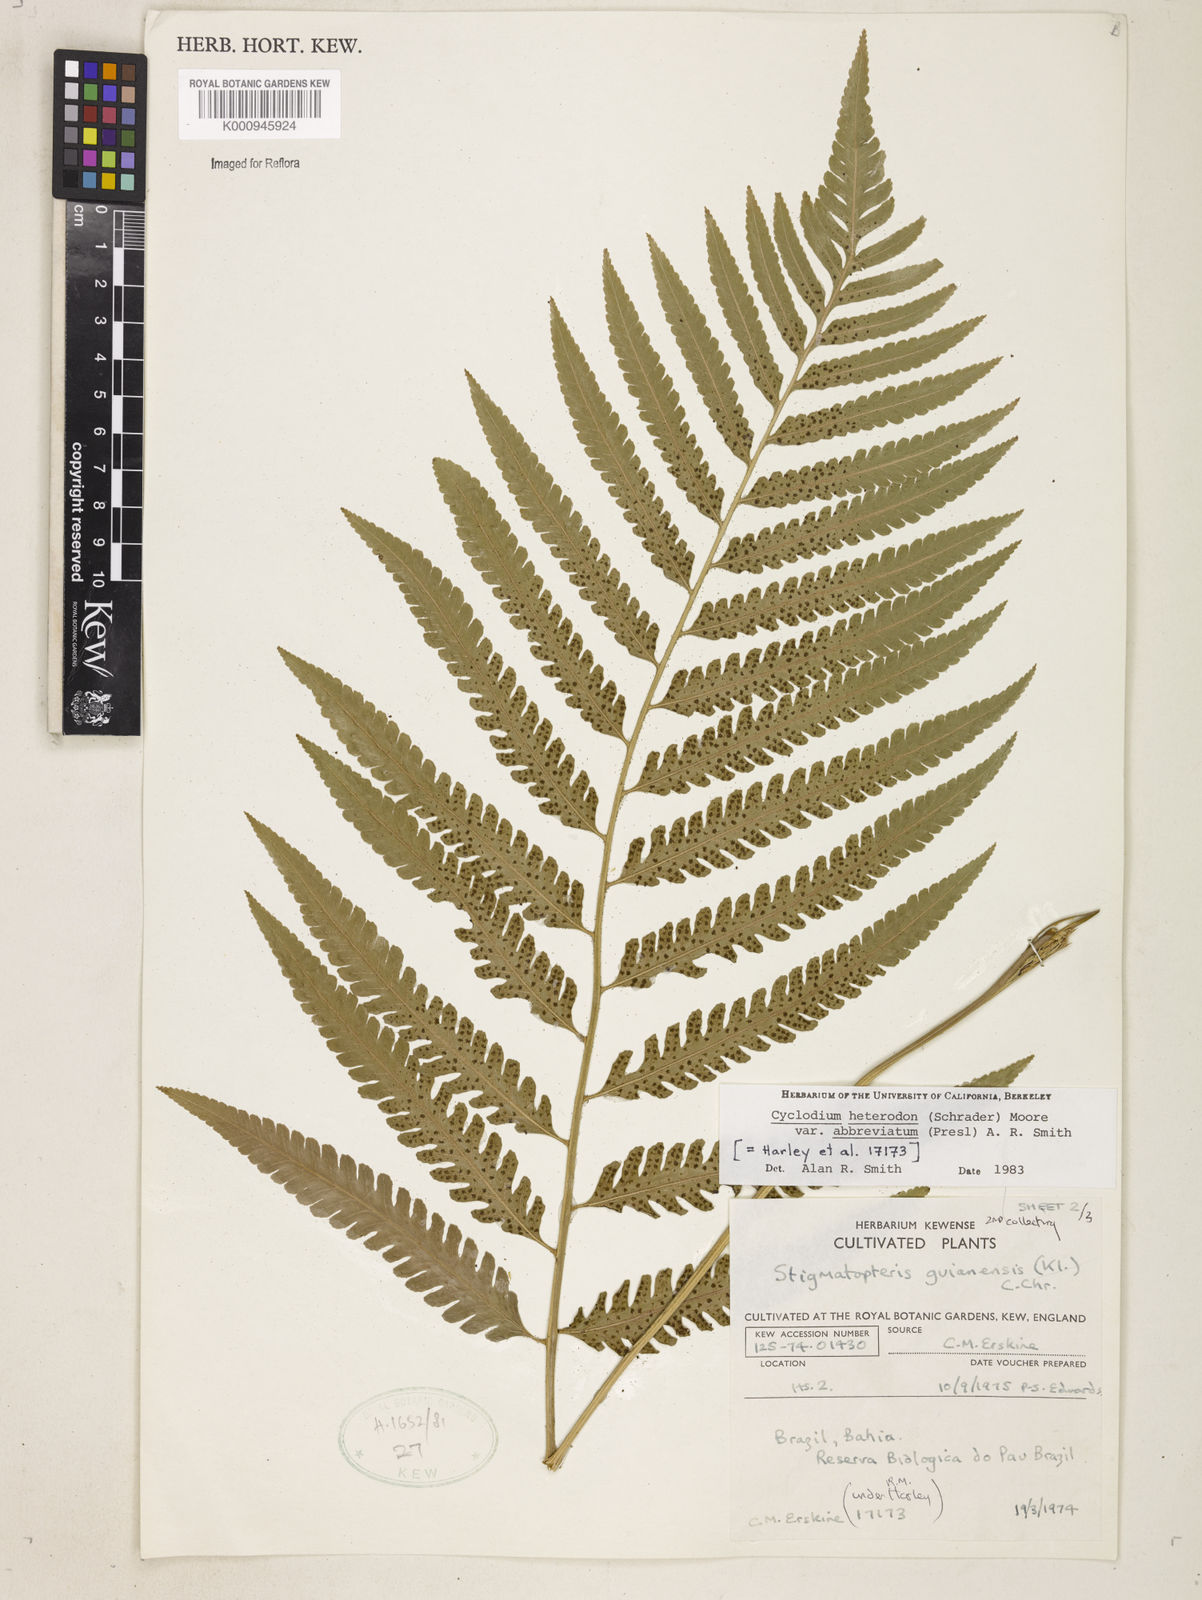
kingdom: Plantae
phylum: Tracheophyta
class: Polypodiopsida
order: Polypodiales
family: Dryopteridaceae
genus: Cyclodium
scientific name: Cyclodium heterodon
